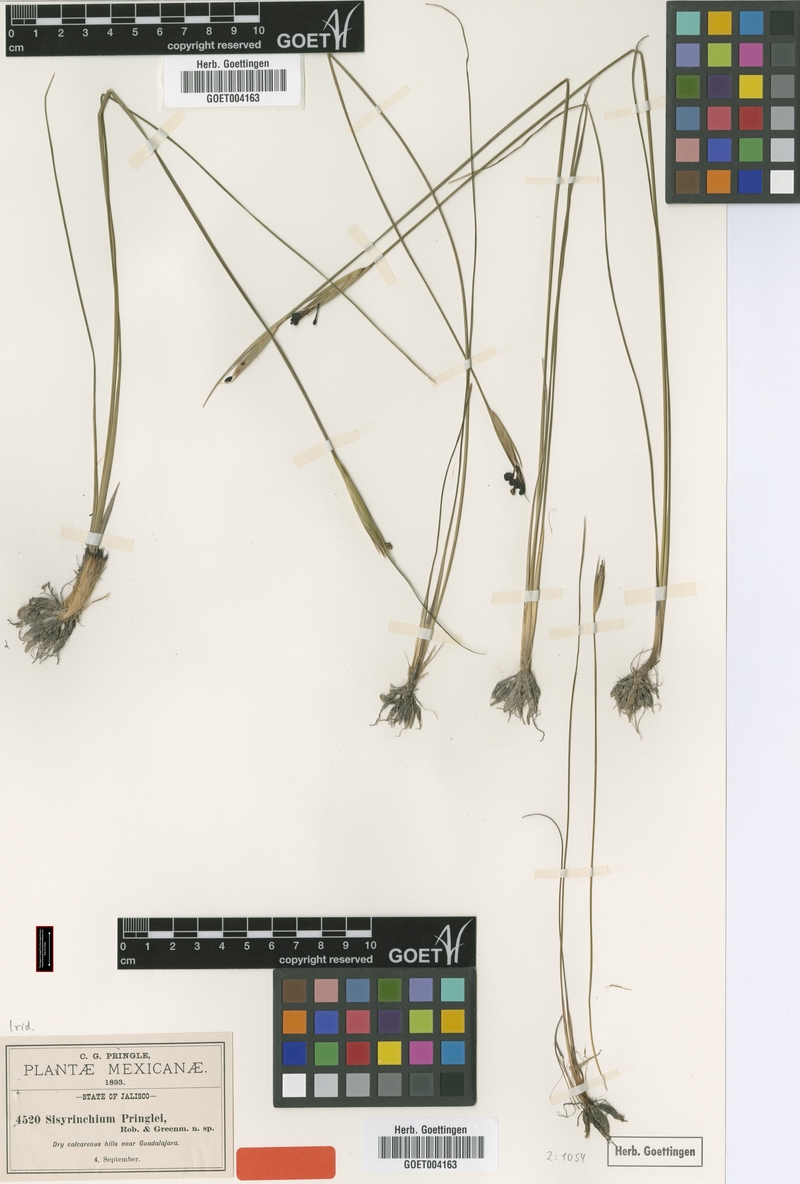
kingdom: Plantae
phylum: Tracheophyta
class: Liliopsida
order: Asparagales
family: Iridaceae
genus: Sisyrinchium
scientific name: Sisyrinchium pringlei
